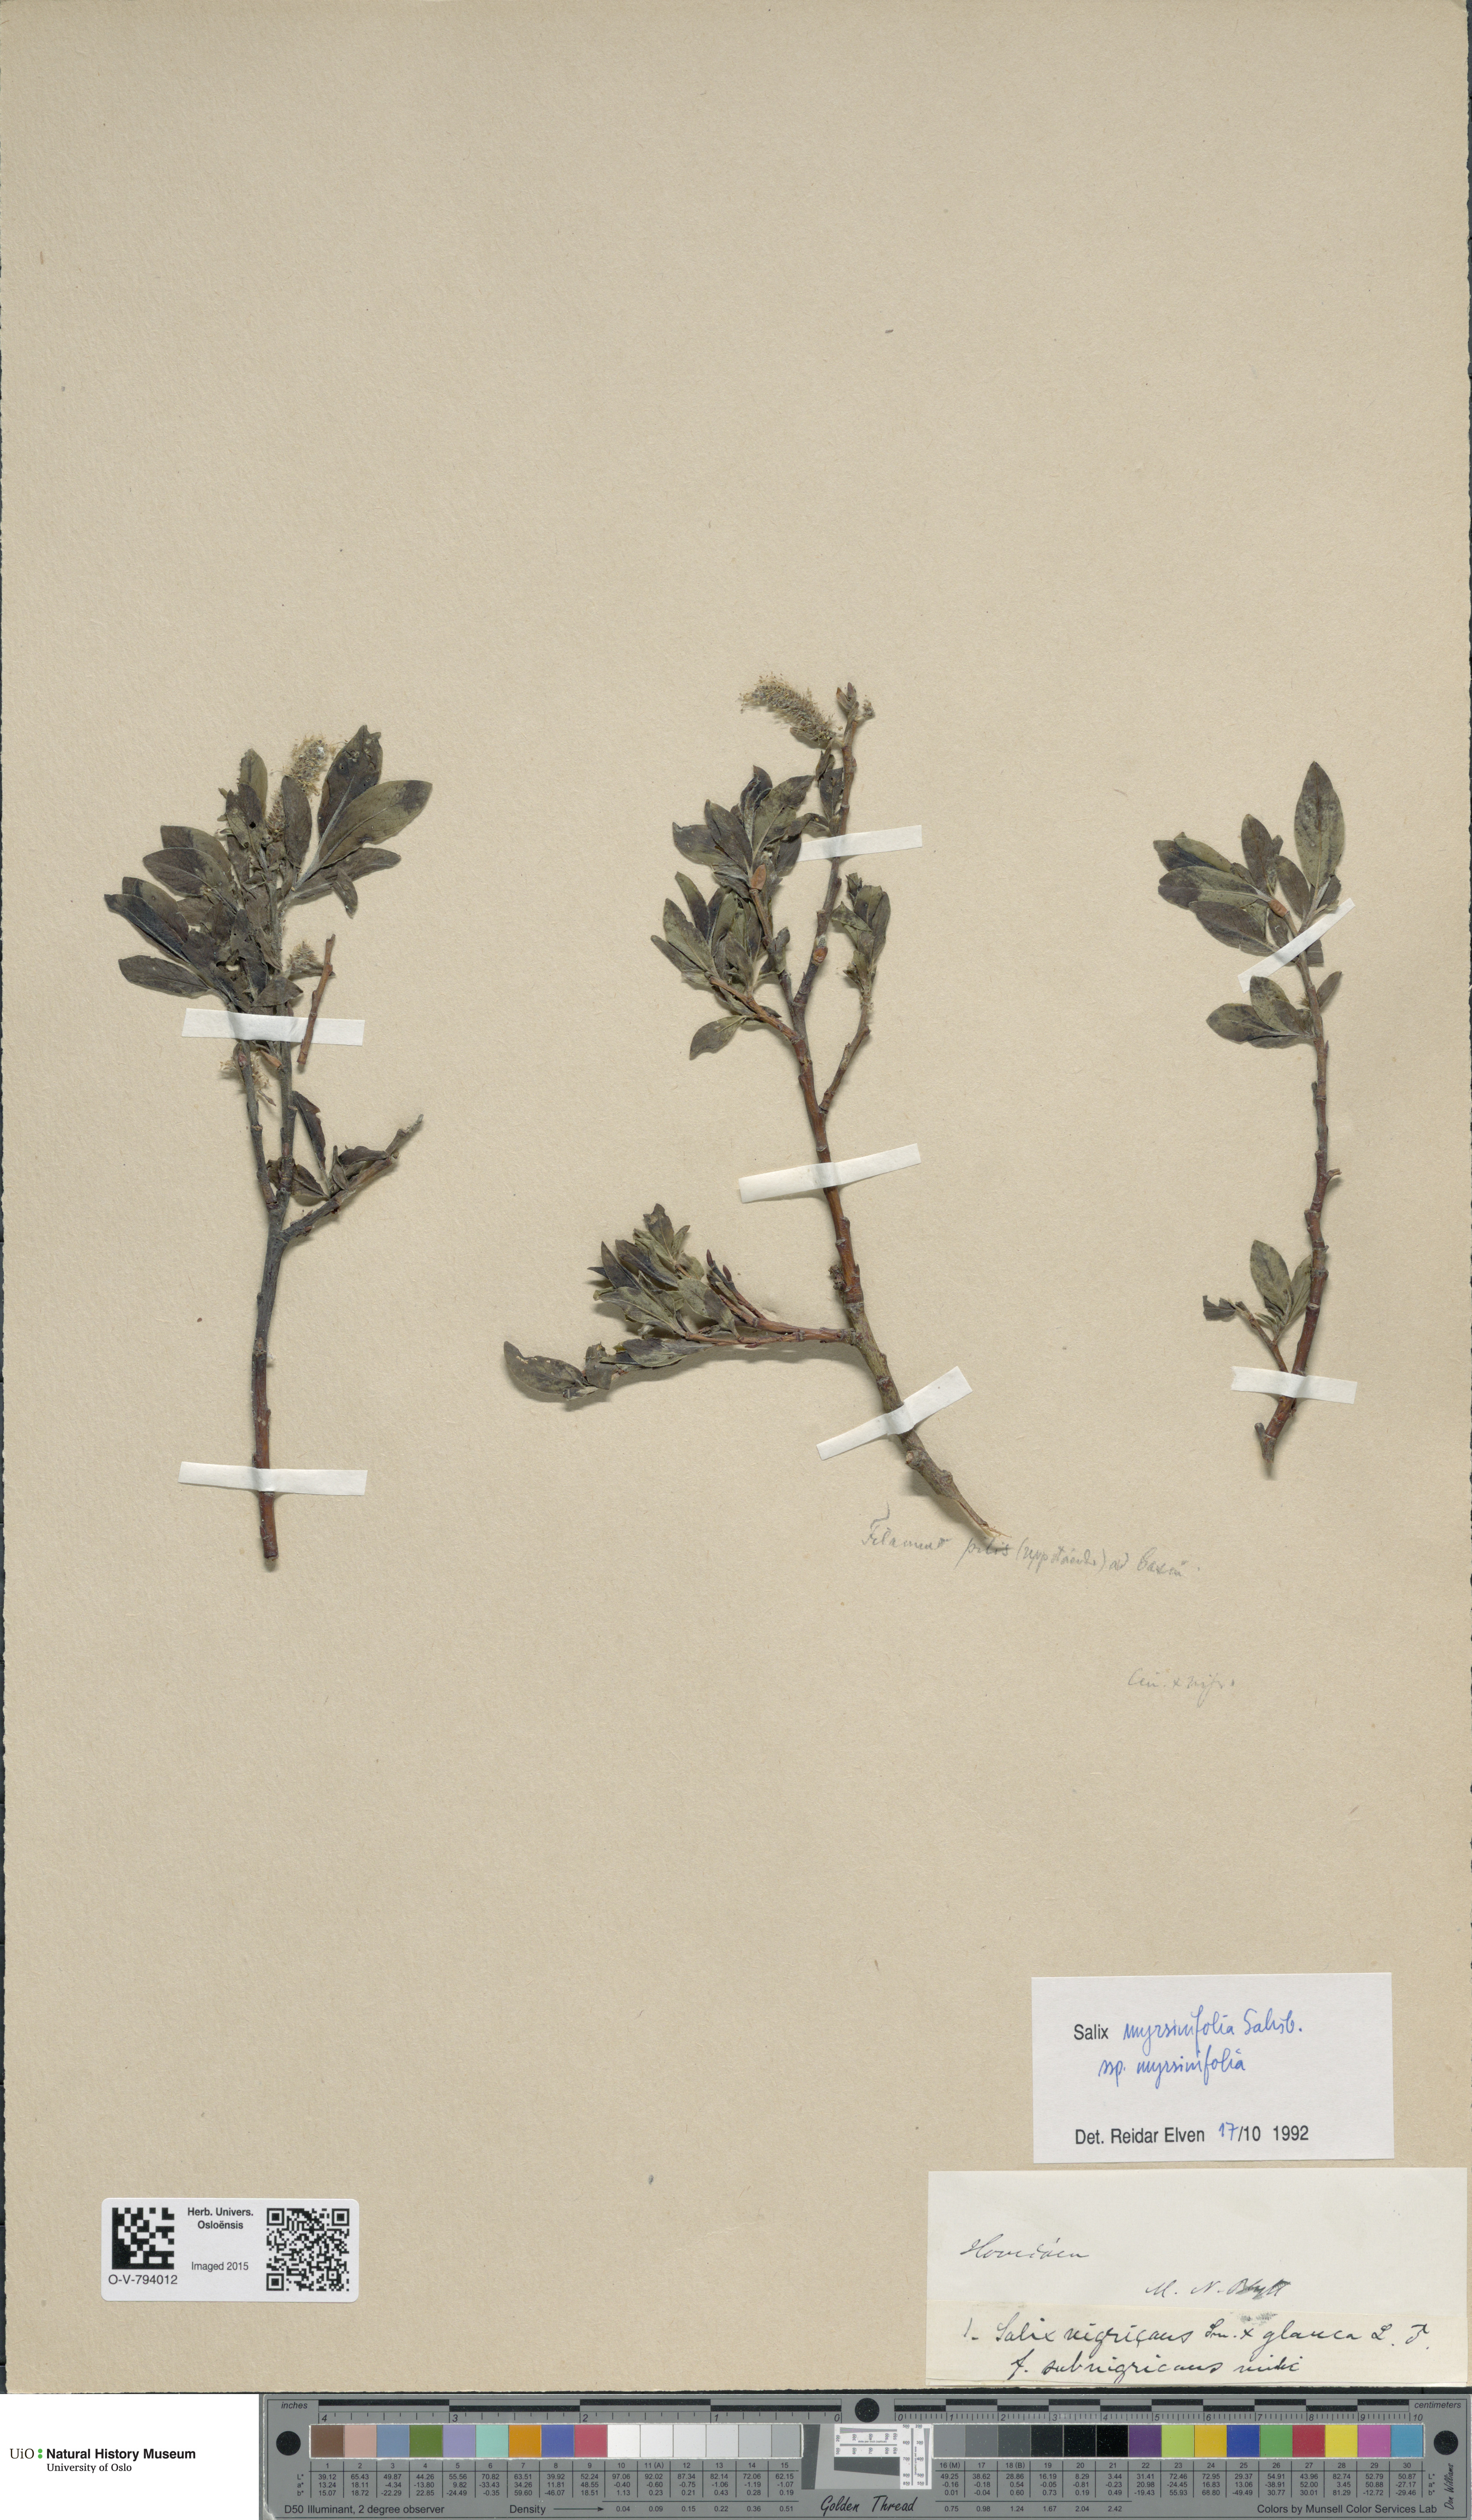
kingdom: Plantae
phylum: Tracheophyta
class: Magnoliopsida
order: Malpighiales
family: Salicaceae
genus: Salix
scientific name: Salix myrsinifolia
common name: Dark-leaved willow
